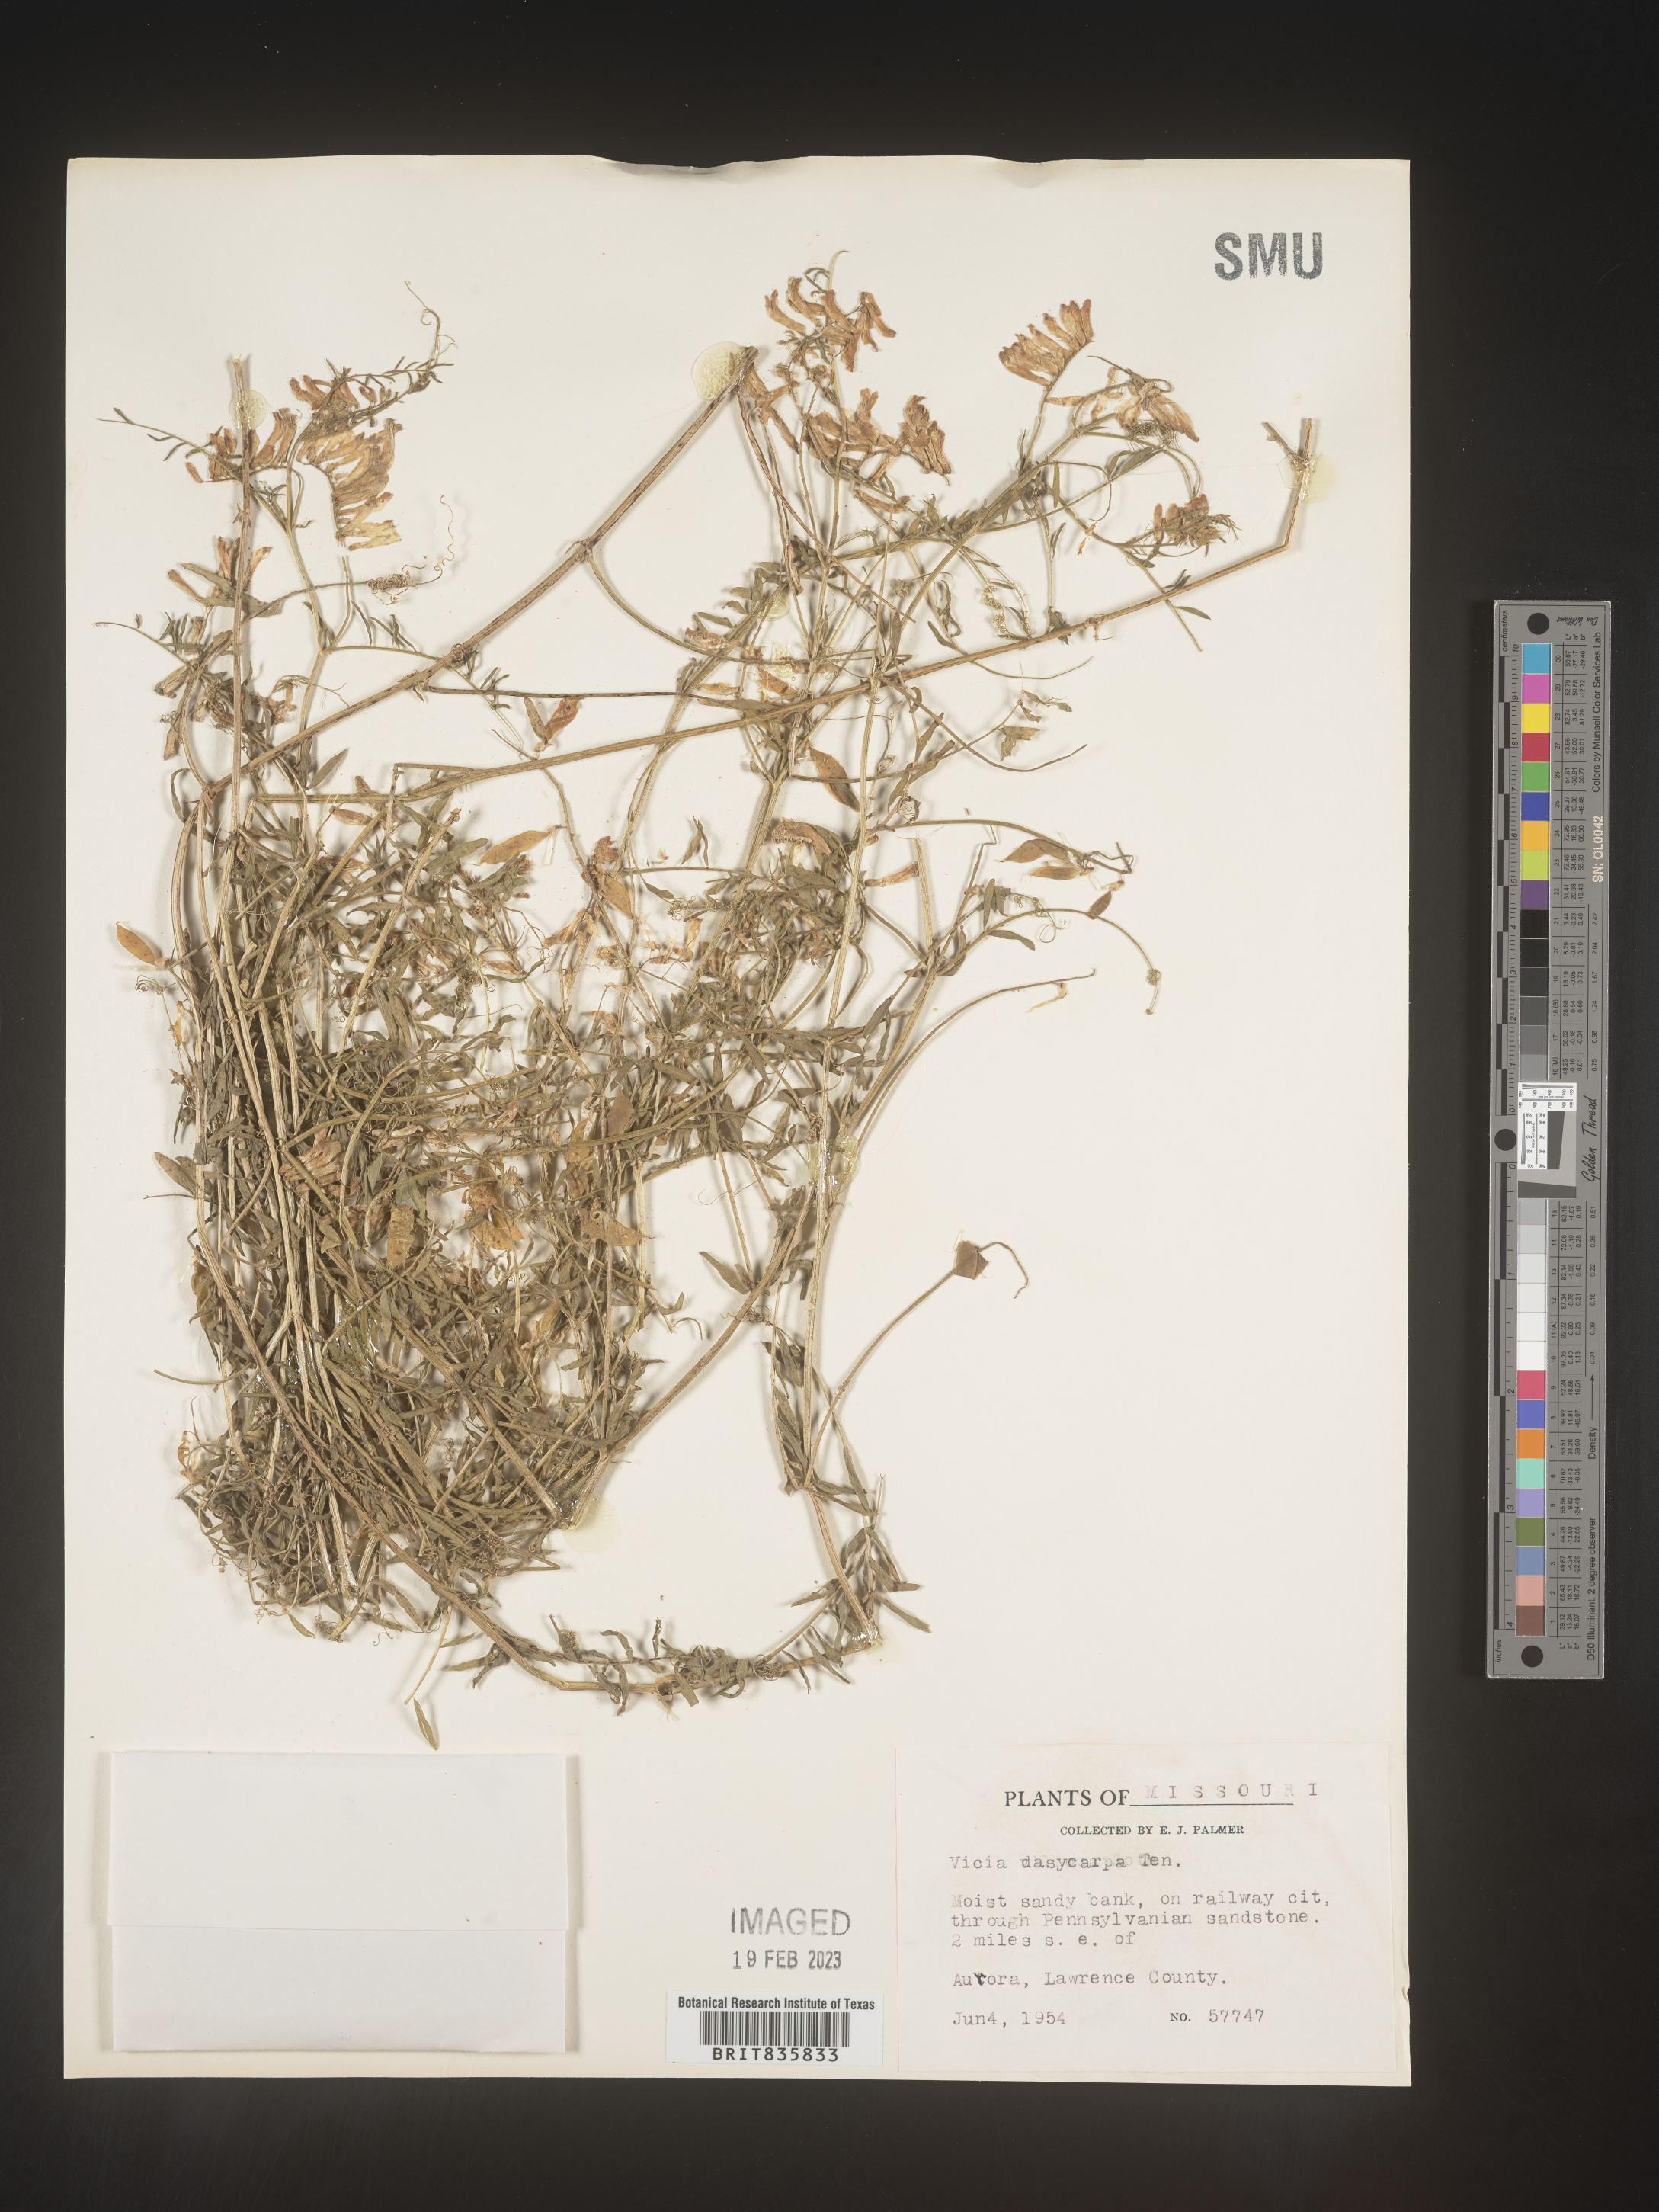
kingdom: Plantae
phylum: Tracheophyta
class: Magnoliopsida
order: Fabales
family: Fabaceae
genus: Vicia
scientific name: Vicia villosa
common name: Fodder vetch
